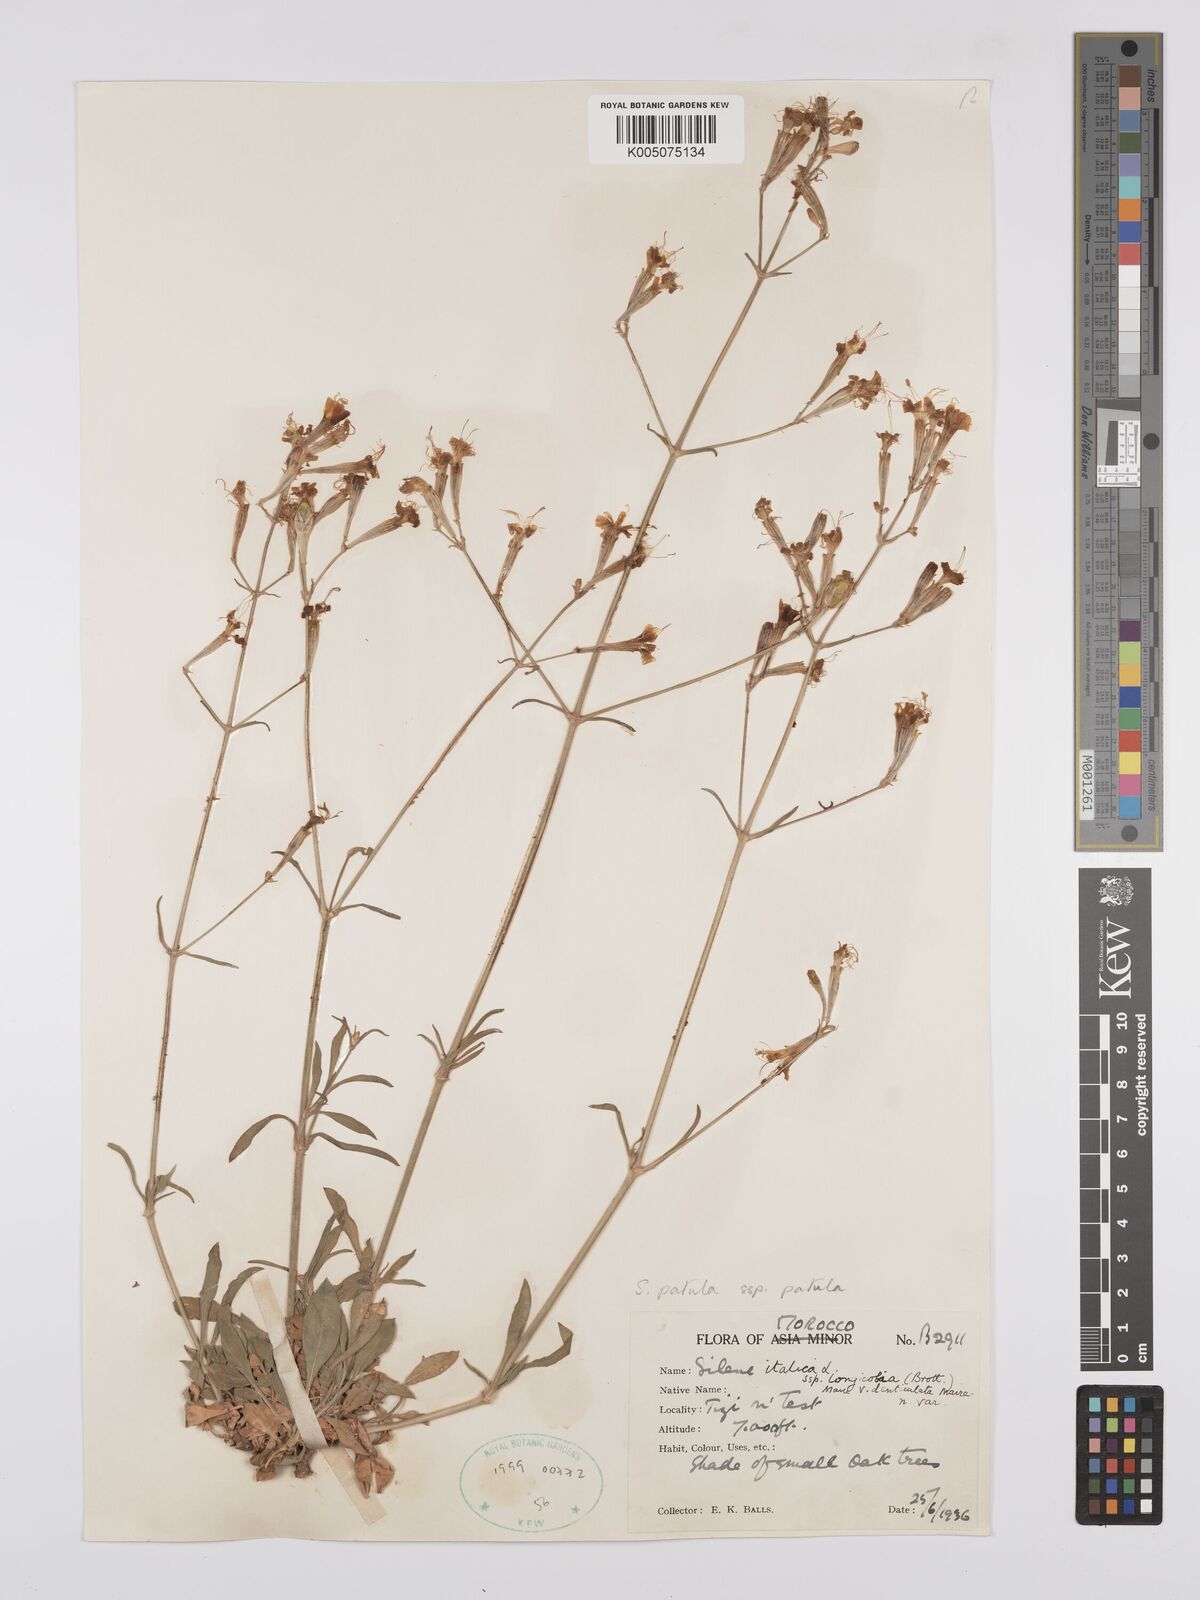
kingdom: Plantae
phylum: Tracheophyta
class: Magnoliopsida
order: Caryophyllales
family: Caryophyllaceae
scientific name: Caryophyllaceae
